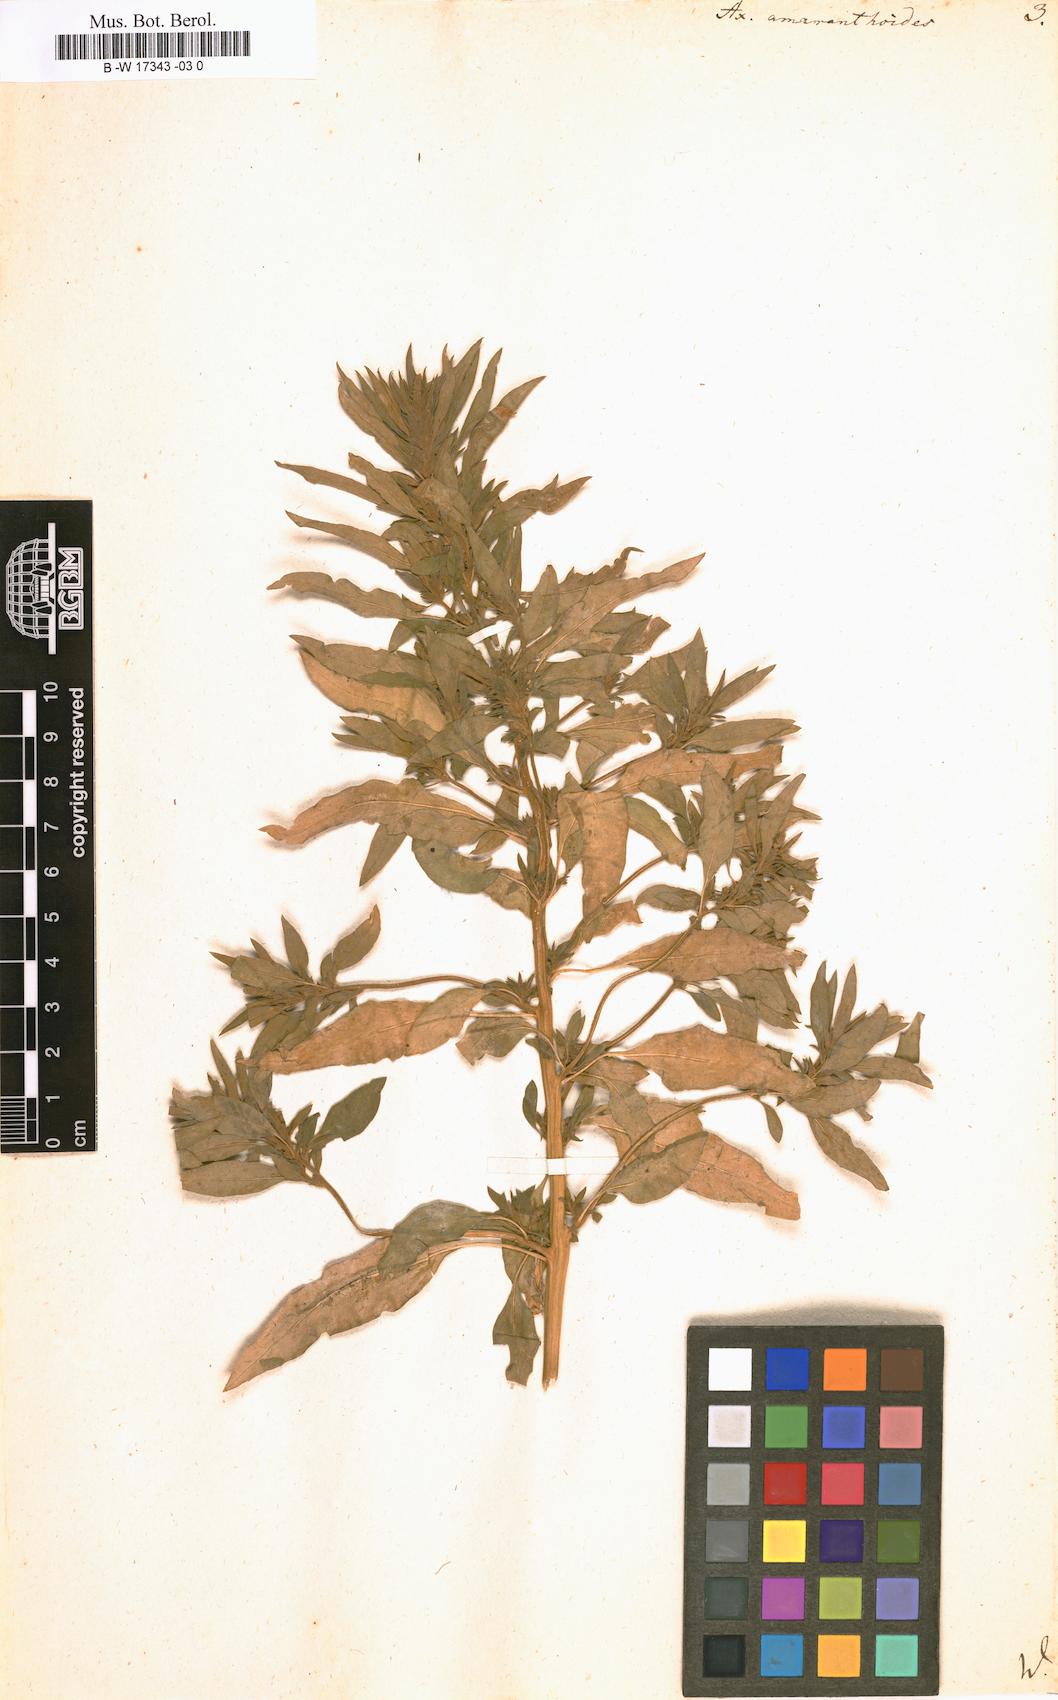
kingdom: Plantae
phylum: Tracheophyta
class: Magnoliopsida
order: Caryophyllales
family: Amaranthaceae
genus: Axyris
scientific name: Axyris amaranthoides
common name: Russian pigweed
